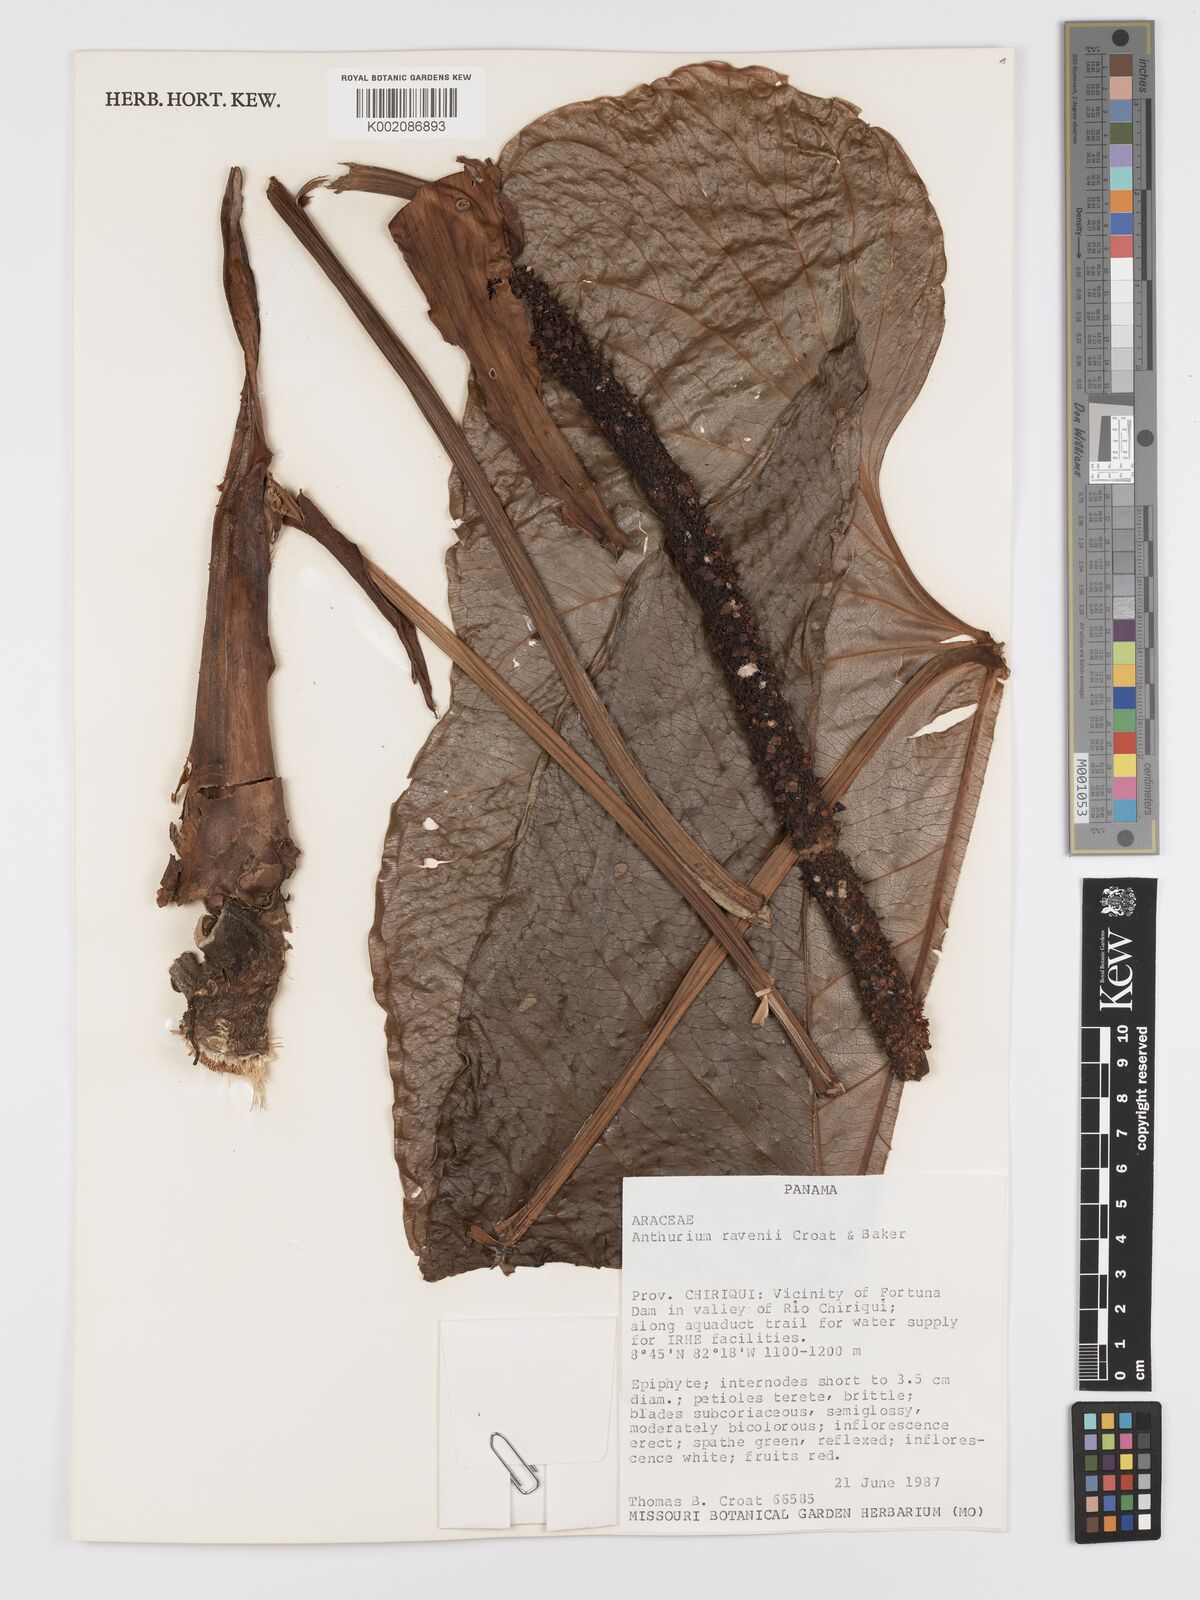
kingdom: Plantae
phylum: Tracheophyta
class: Liliopsida
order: Alismatales
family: Araceae
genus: Anthurium
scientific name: Anthurium ravenii
